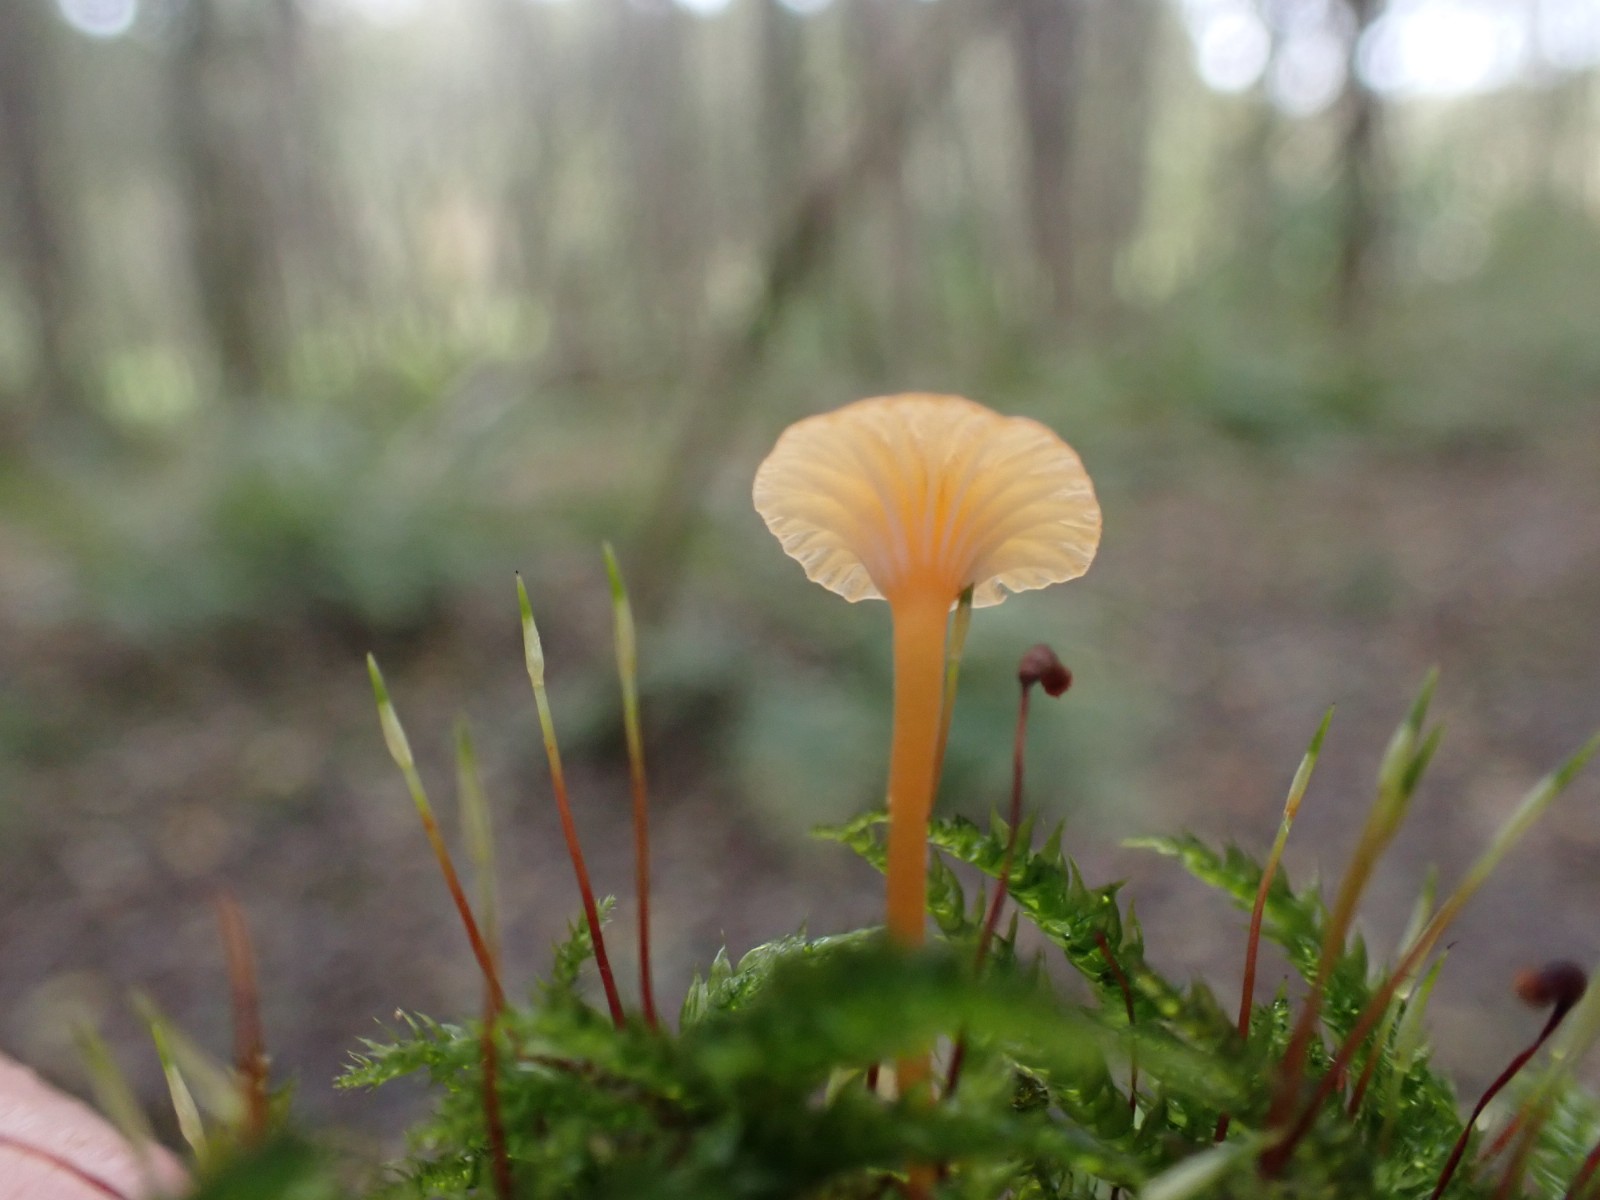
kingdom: Fungi
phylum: Basidiomycota
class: Agaricomycetes
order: Hymenochaetales
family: Rickenellaceae
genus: Rickenella
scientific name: Rickenella fibula
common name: orange mosnavlehat
